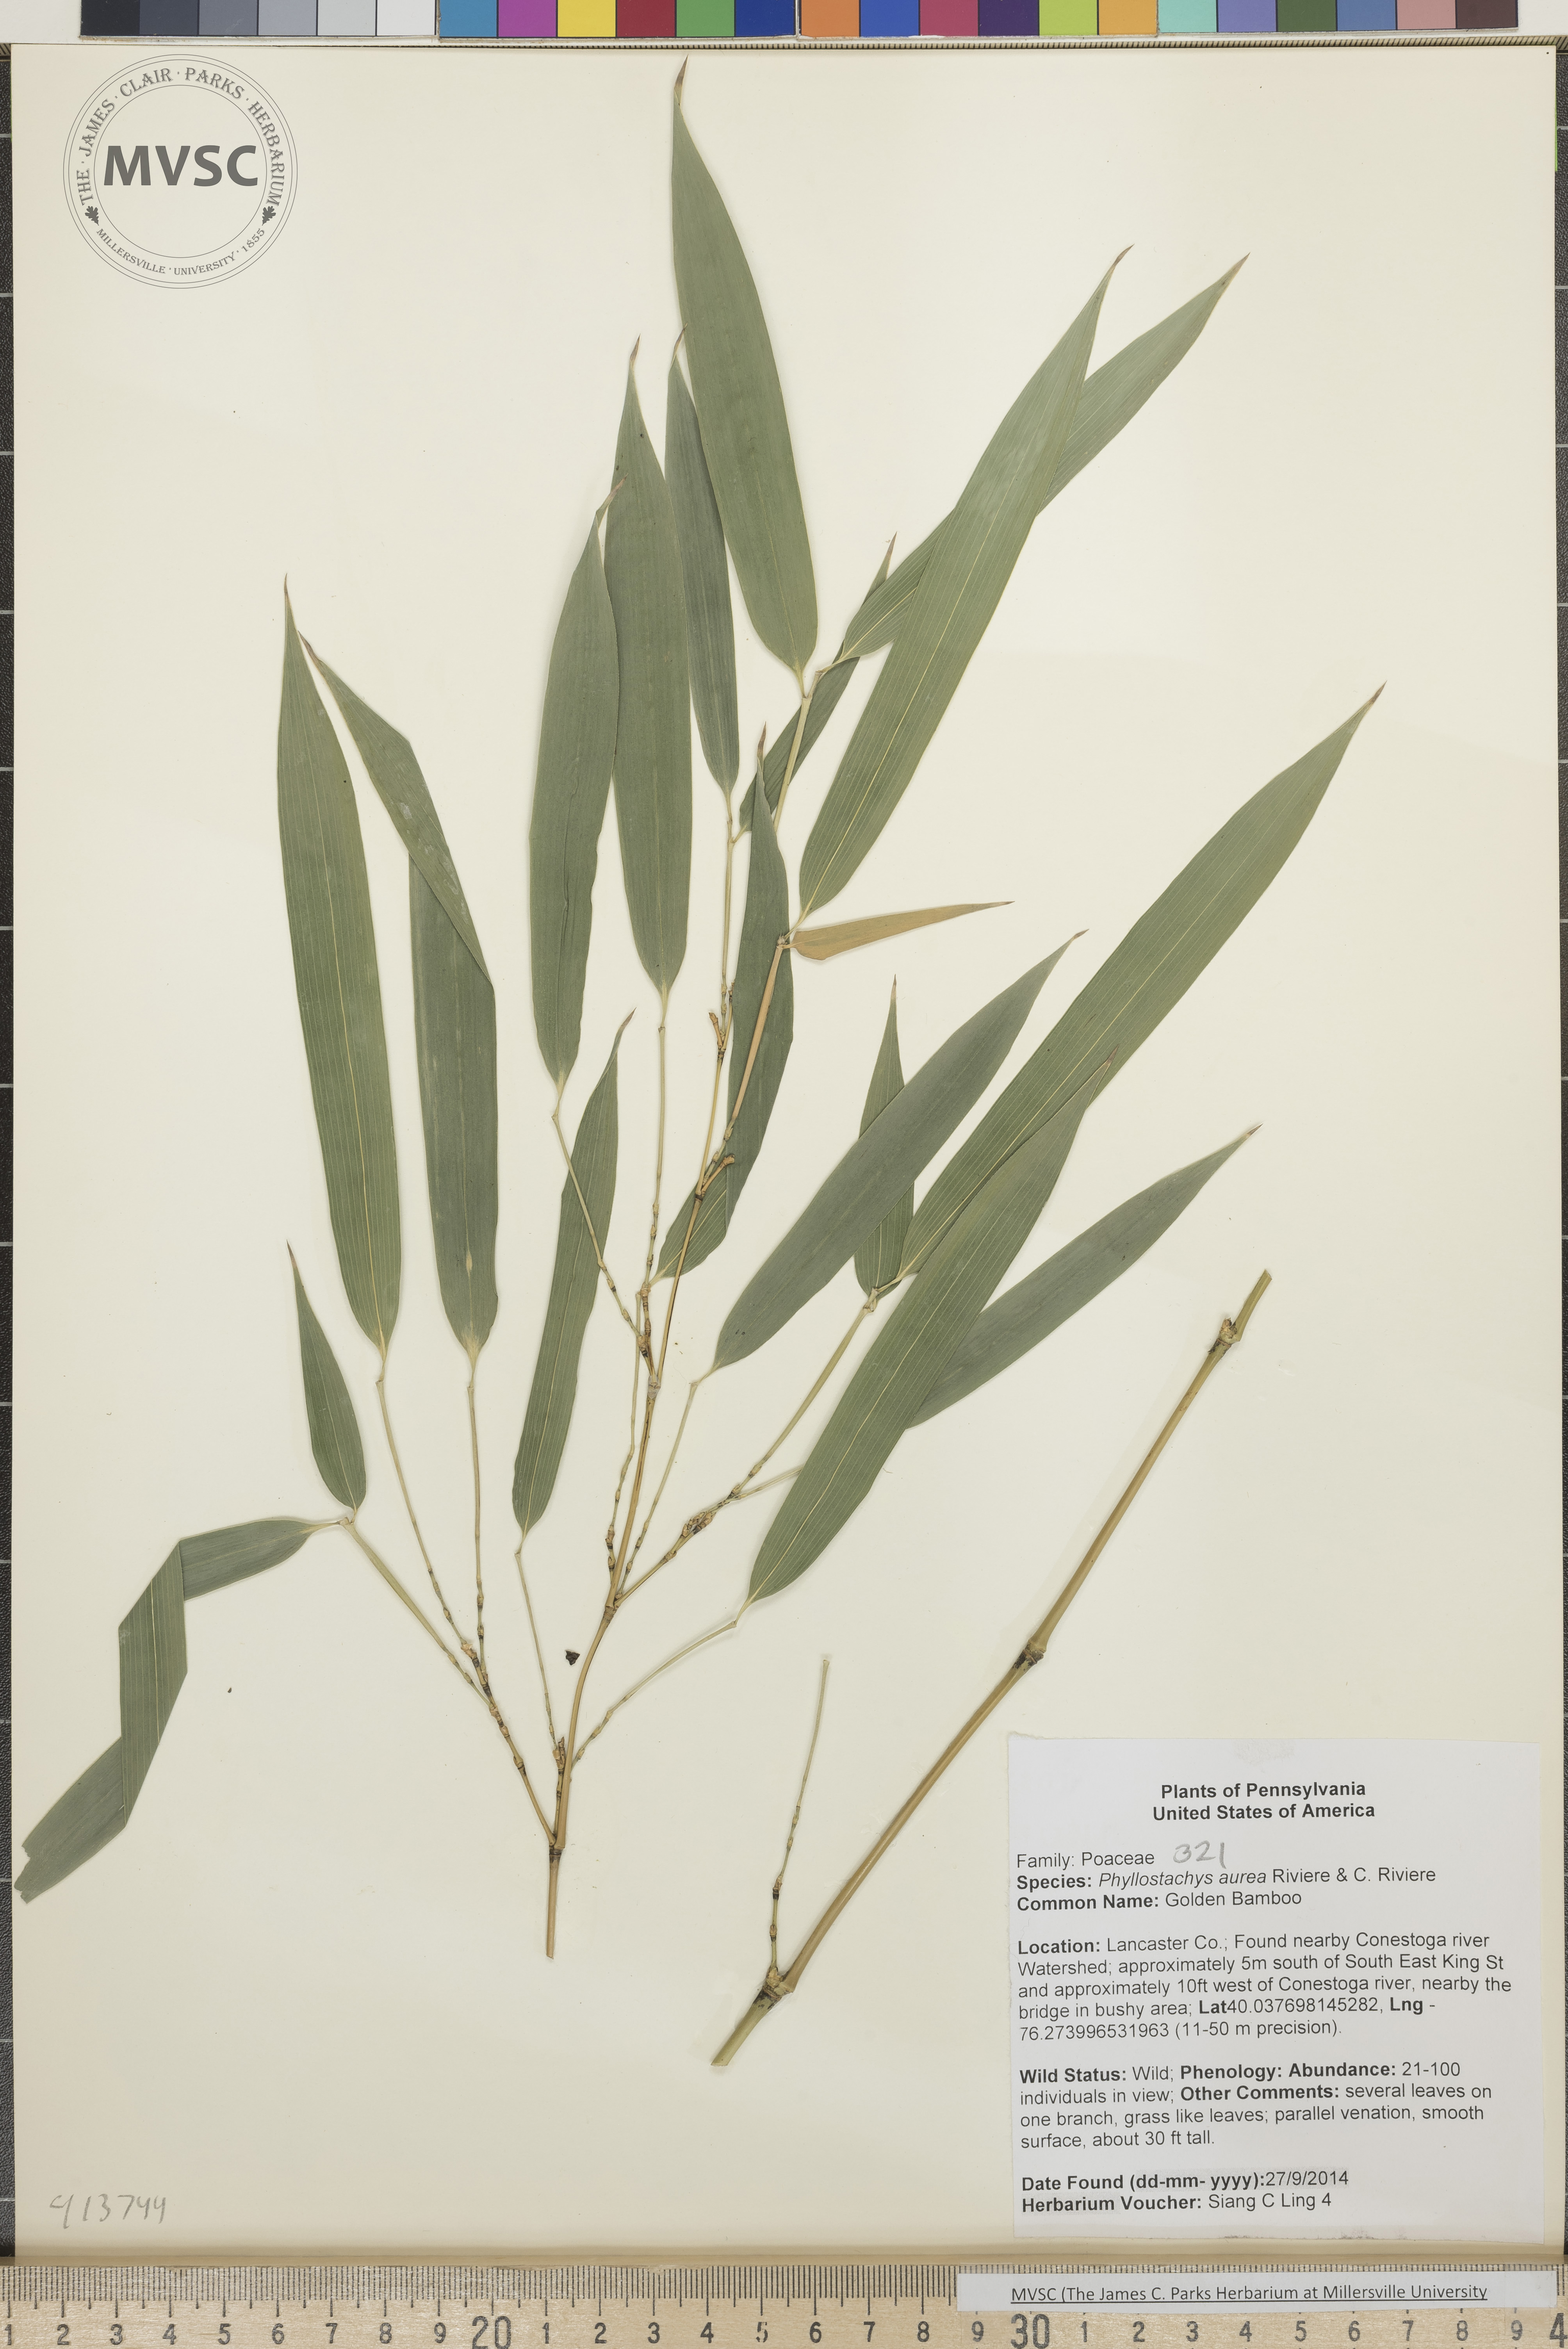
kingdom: Plantae
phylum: Tracheophyta
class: Liliopsida
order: Poales
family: Poaceae
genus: Phyllostachys
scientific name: Phyllostachys aureosulcata
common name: Bamboo
